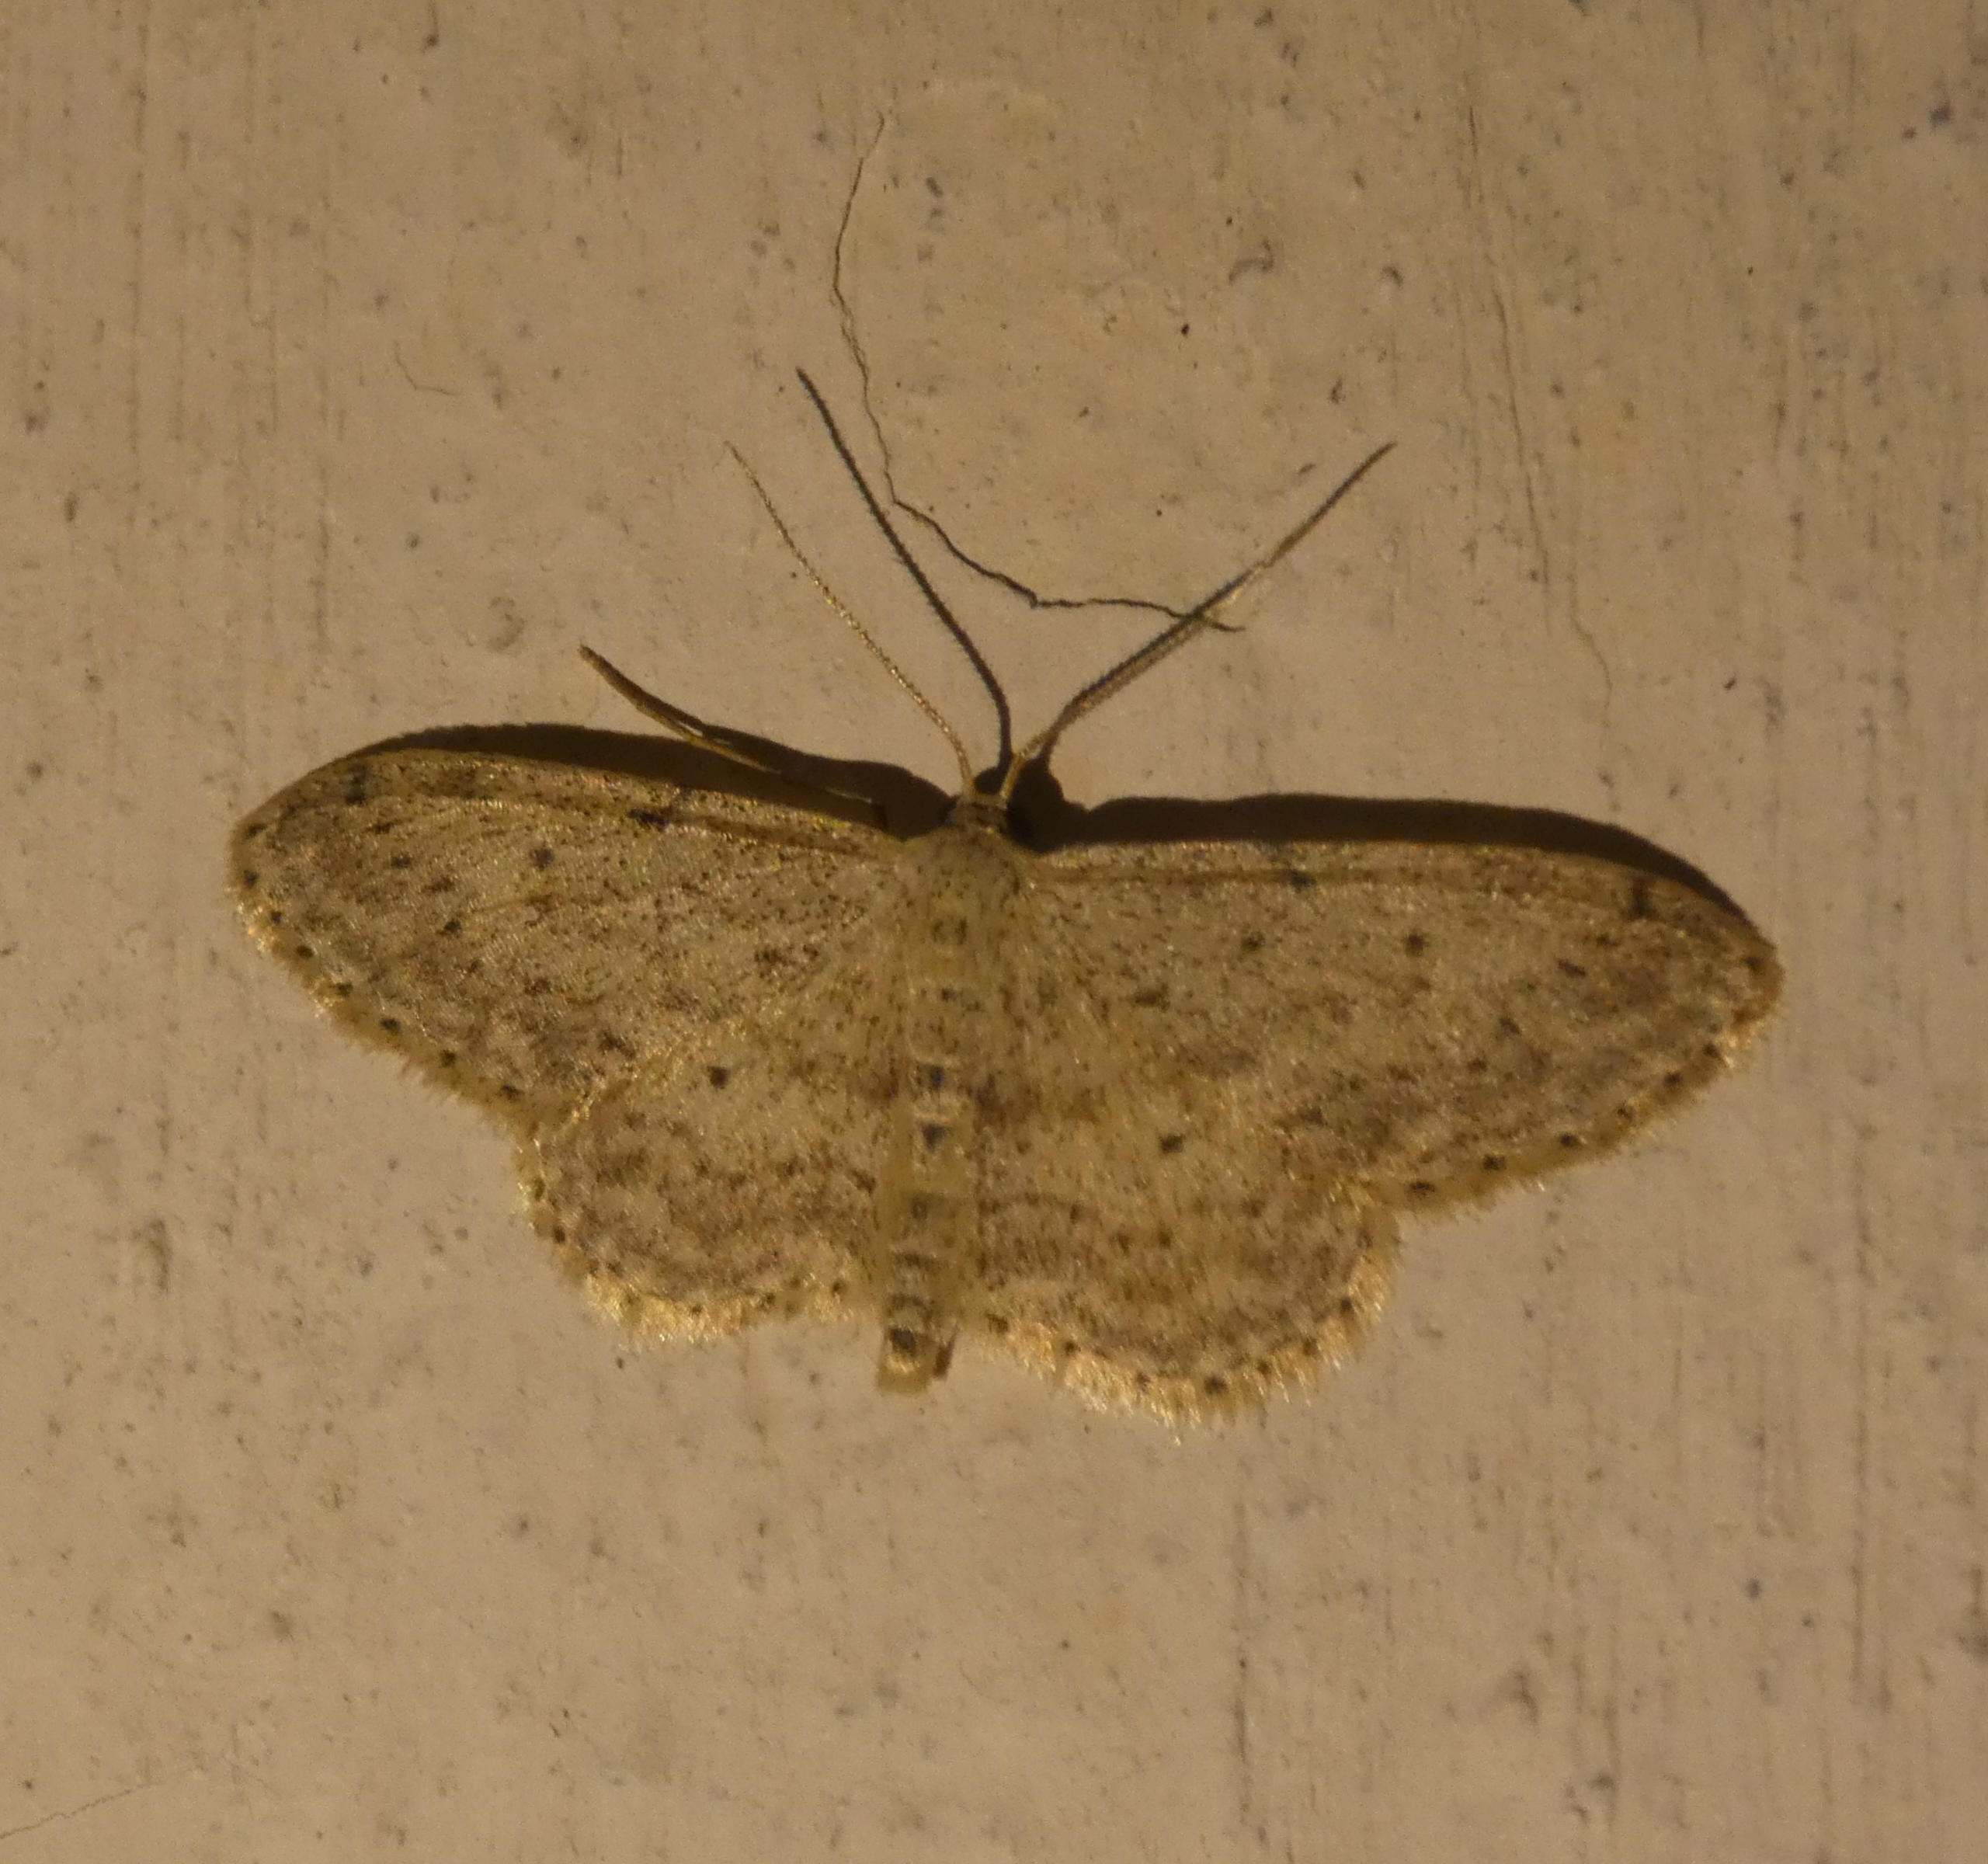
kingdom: Animalia
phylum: Arthropoda
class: Insecta
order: Lepidoptera
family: Geometridae
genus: Idaea
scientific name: Idaea seriata
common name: Gråplettet løvmåler
